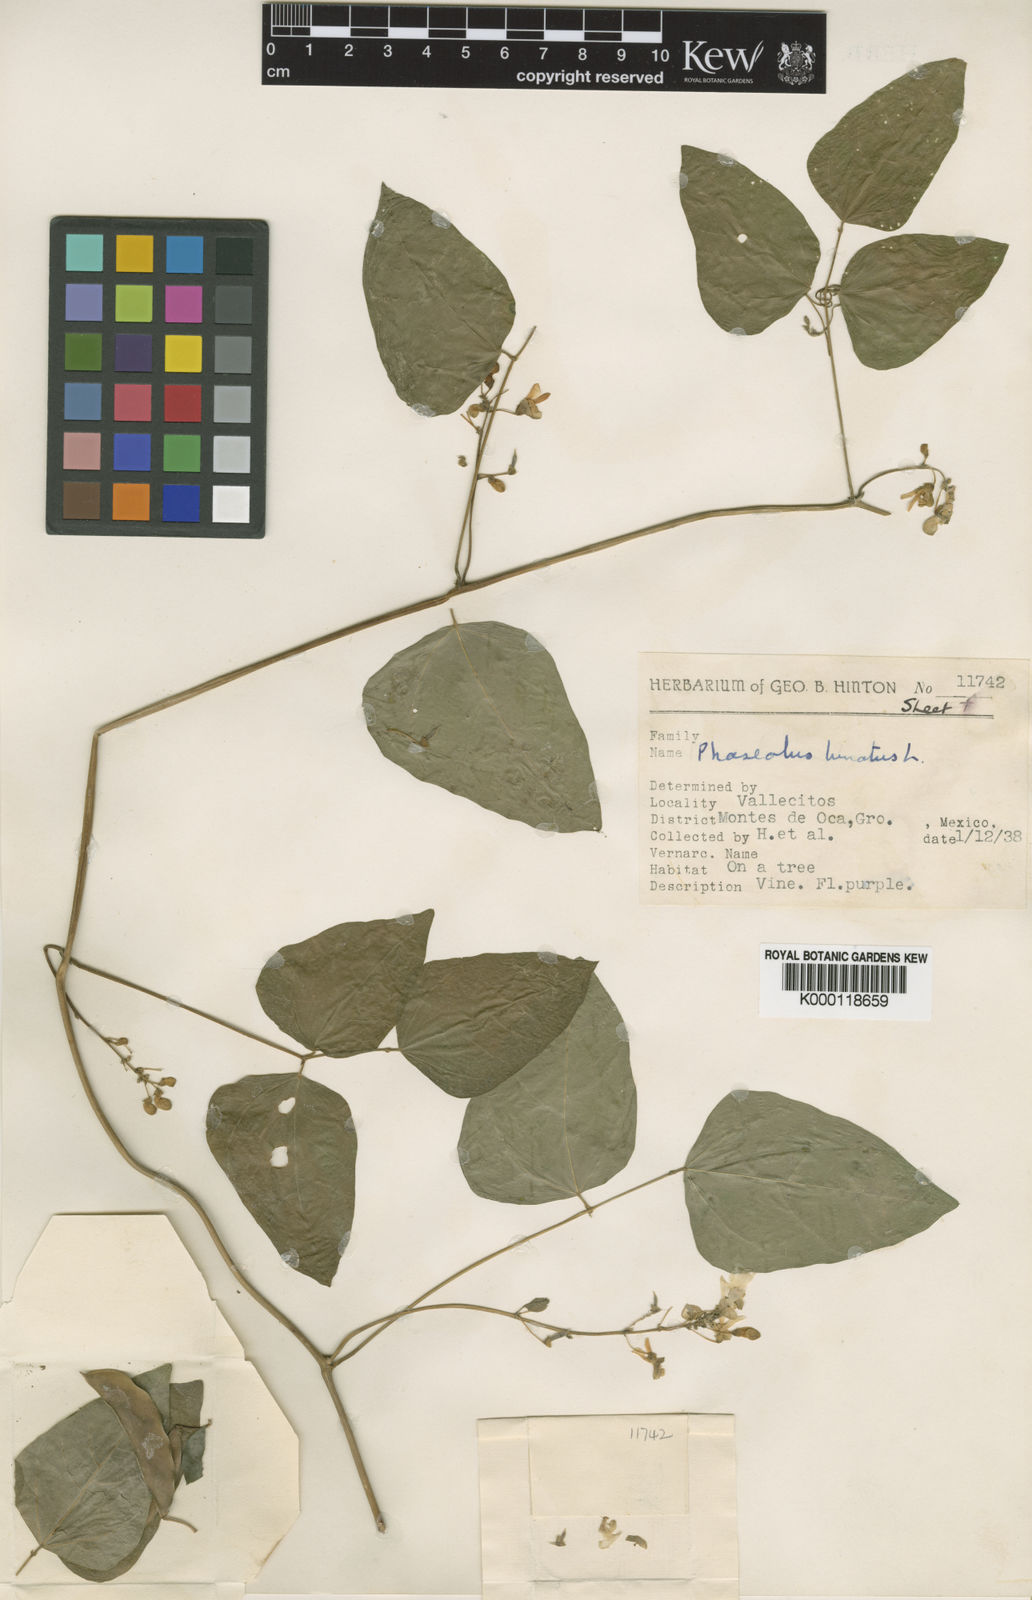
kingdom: Plantae
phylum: Tracheophyta
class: Magnoliopsida
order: Fabales
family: Fabaceae
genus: Phaseolus
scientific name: Phaseolus lunatus
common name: Sieva bean
